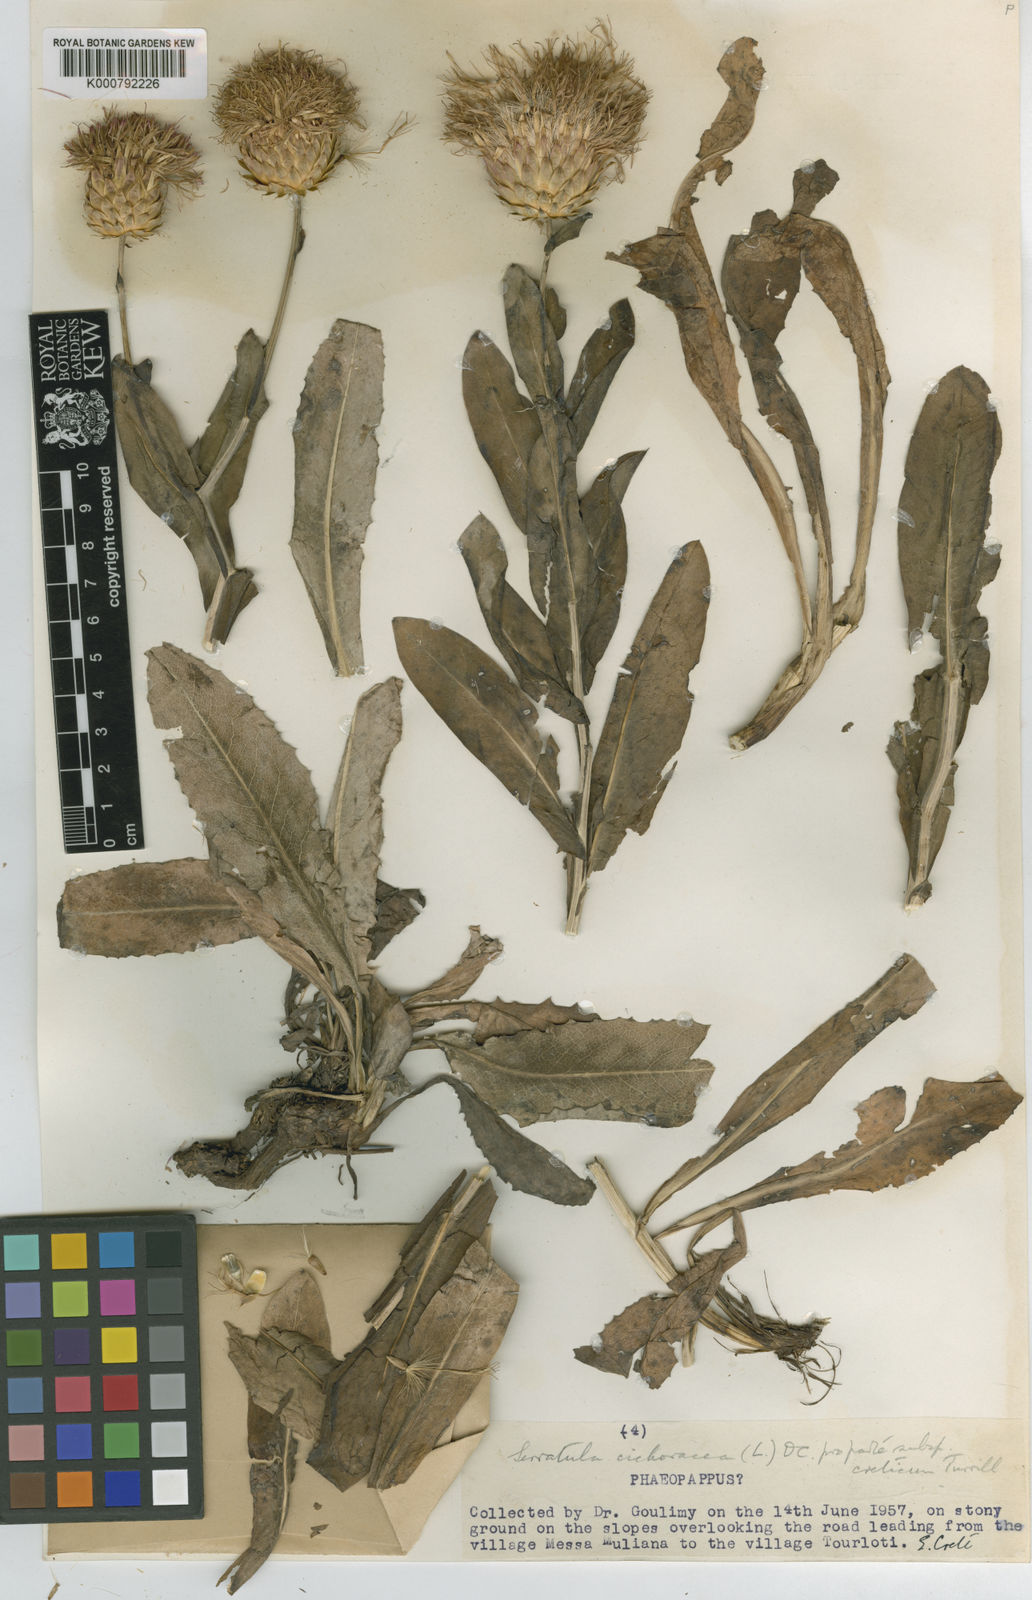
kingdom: Plantae
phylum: Tracheophyta
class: Magnoliopsida
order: Asterales
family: Asteraceae
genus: Klasea
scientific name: Klasea flavescens
